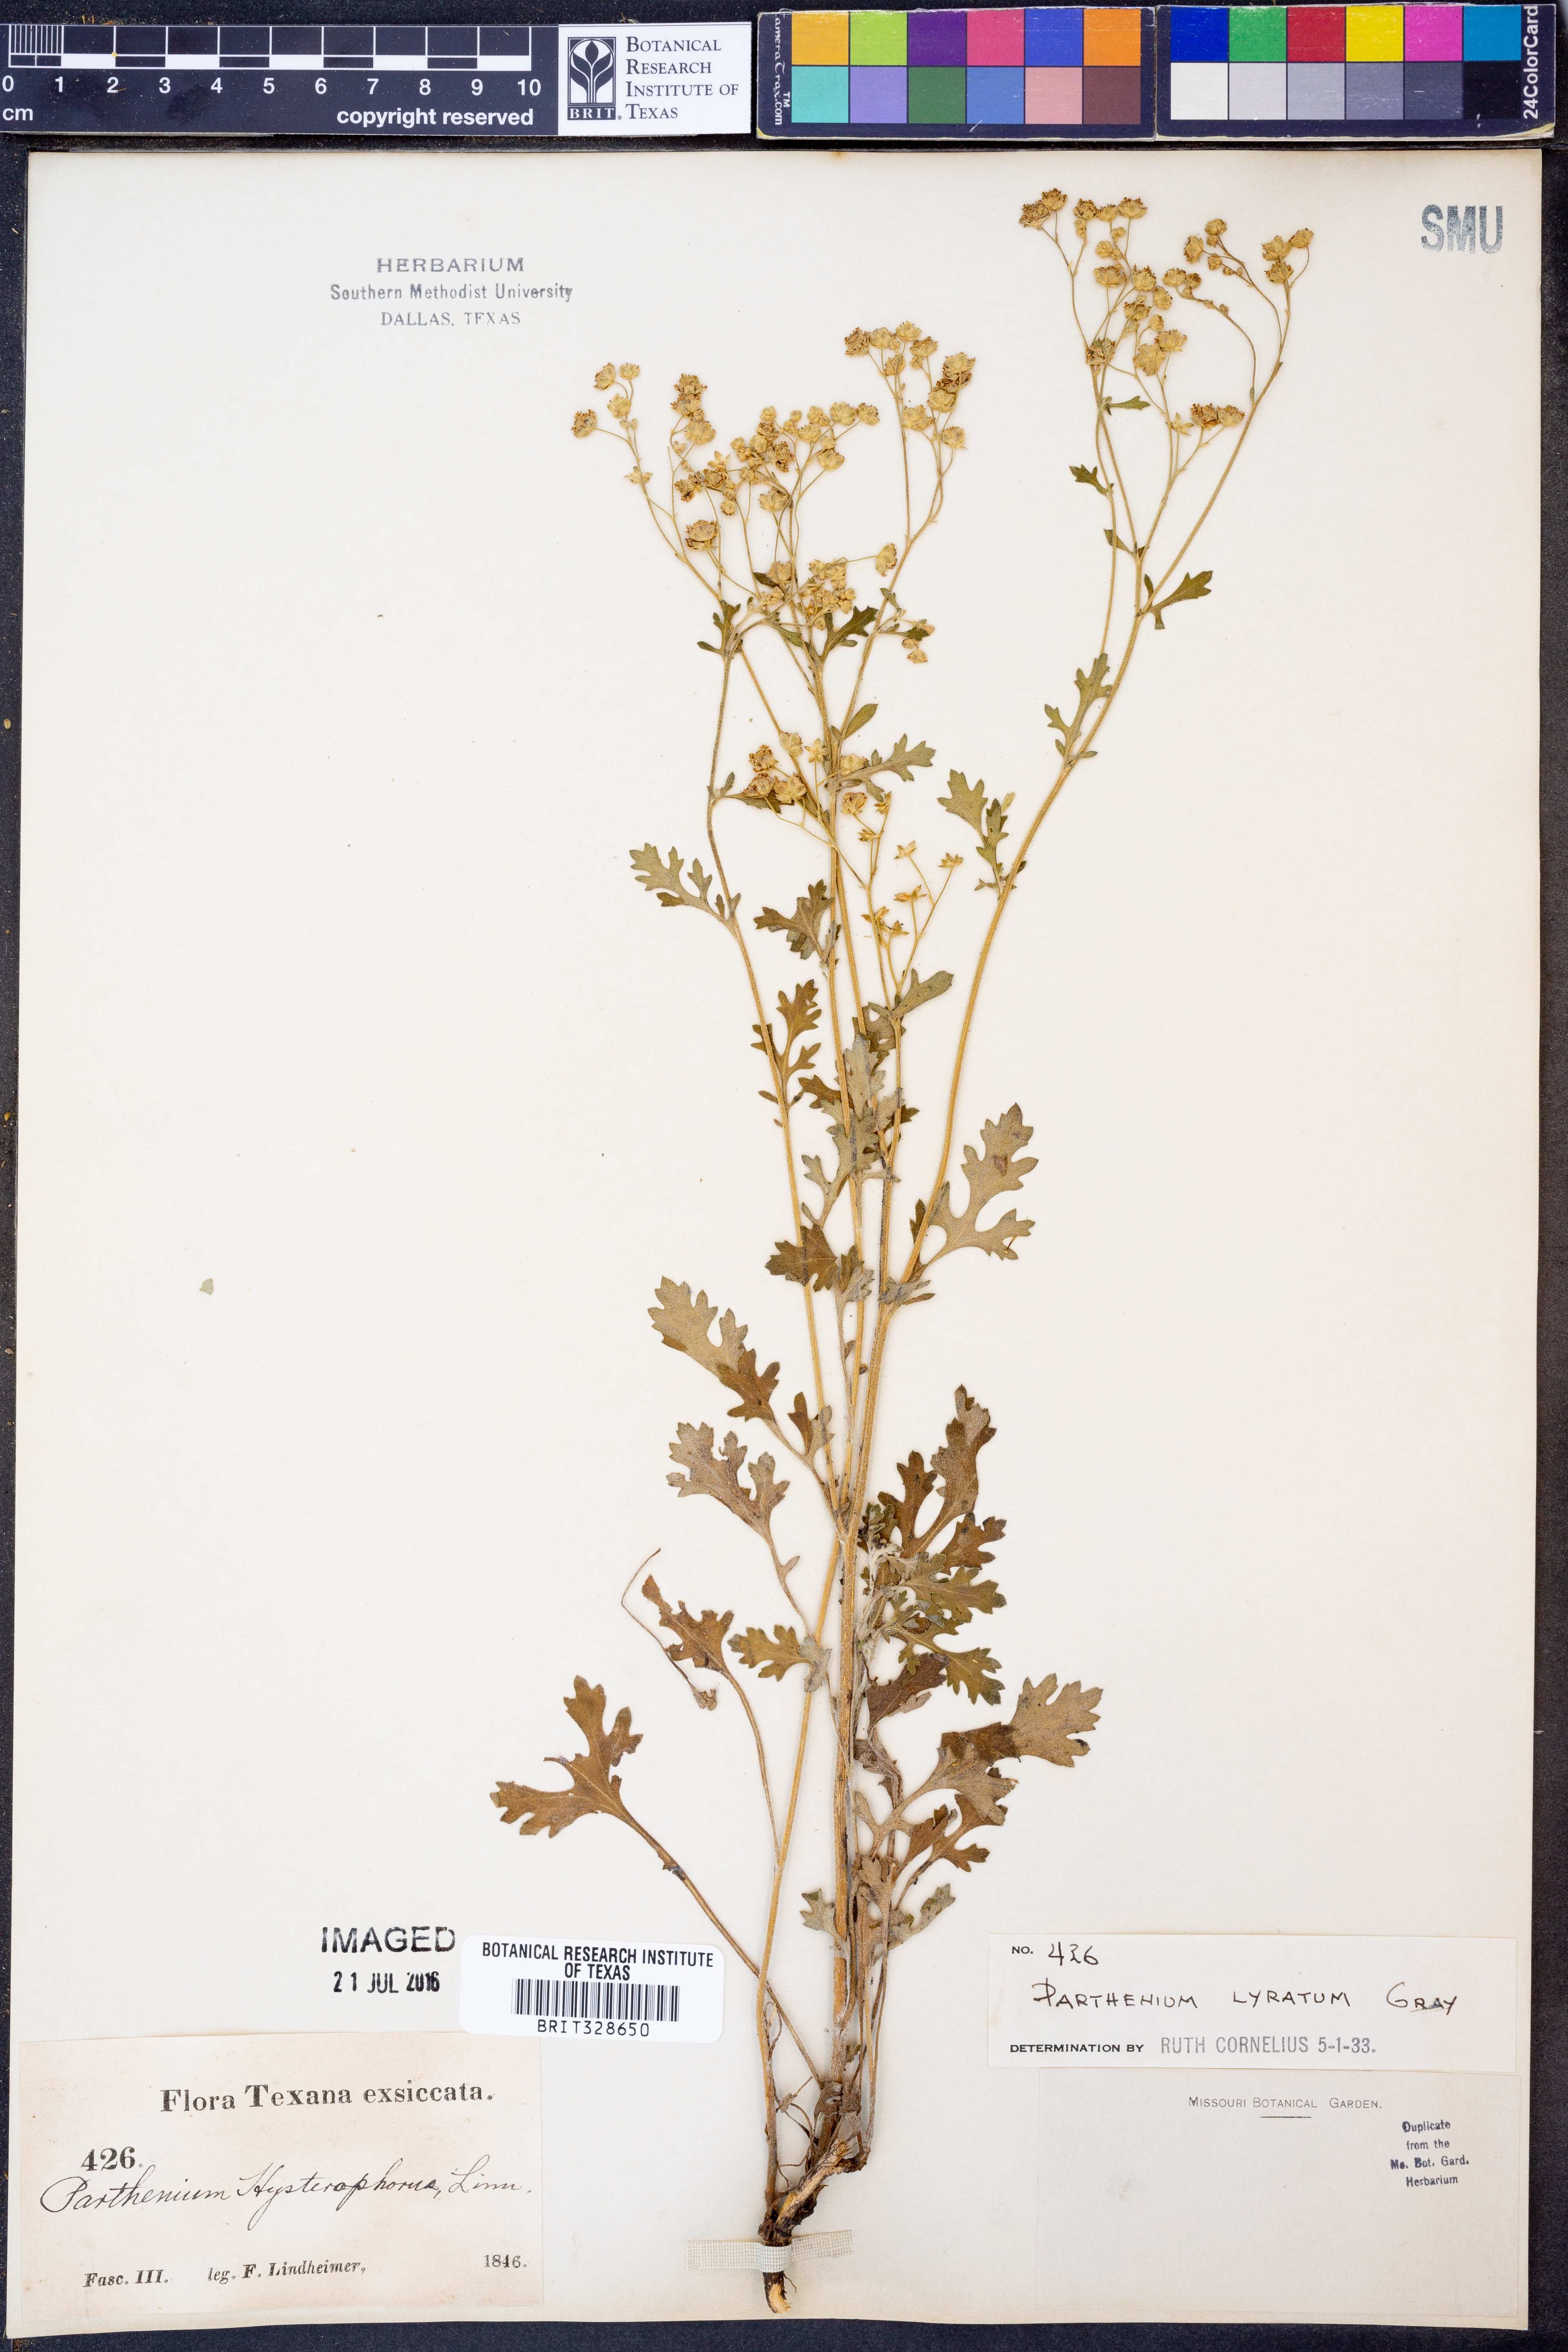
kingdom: Plantae
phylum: Tracheophyta
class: Magnoliopsida
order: Asterales
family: Asteraceae
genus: Parthenium
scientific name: Parthenium confertum
